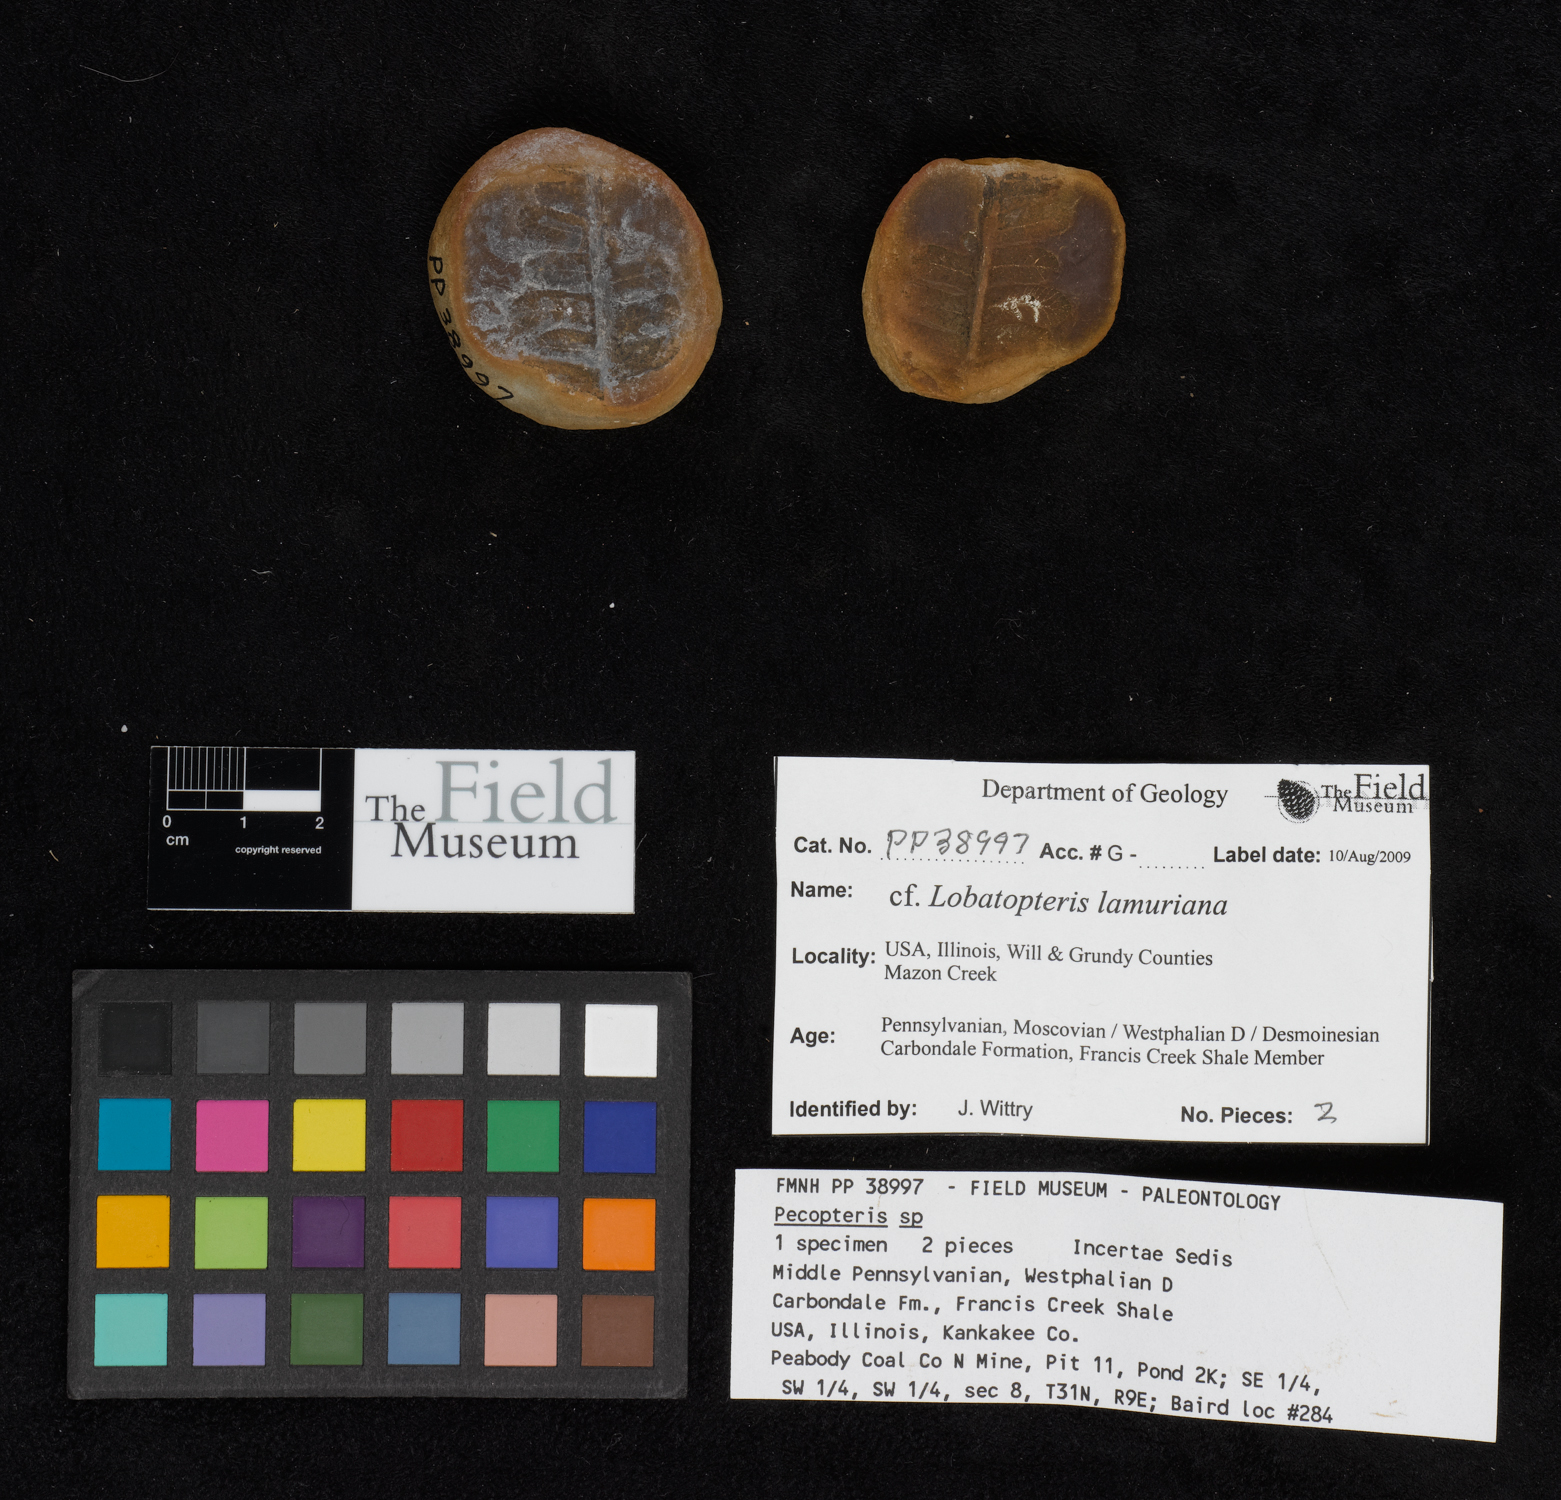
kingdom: Plantae
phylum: Tracheophyta
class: Polypodiopsida
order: Marattiales
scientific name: Marattiales
